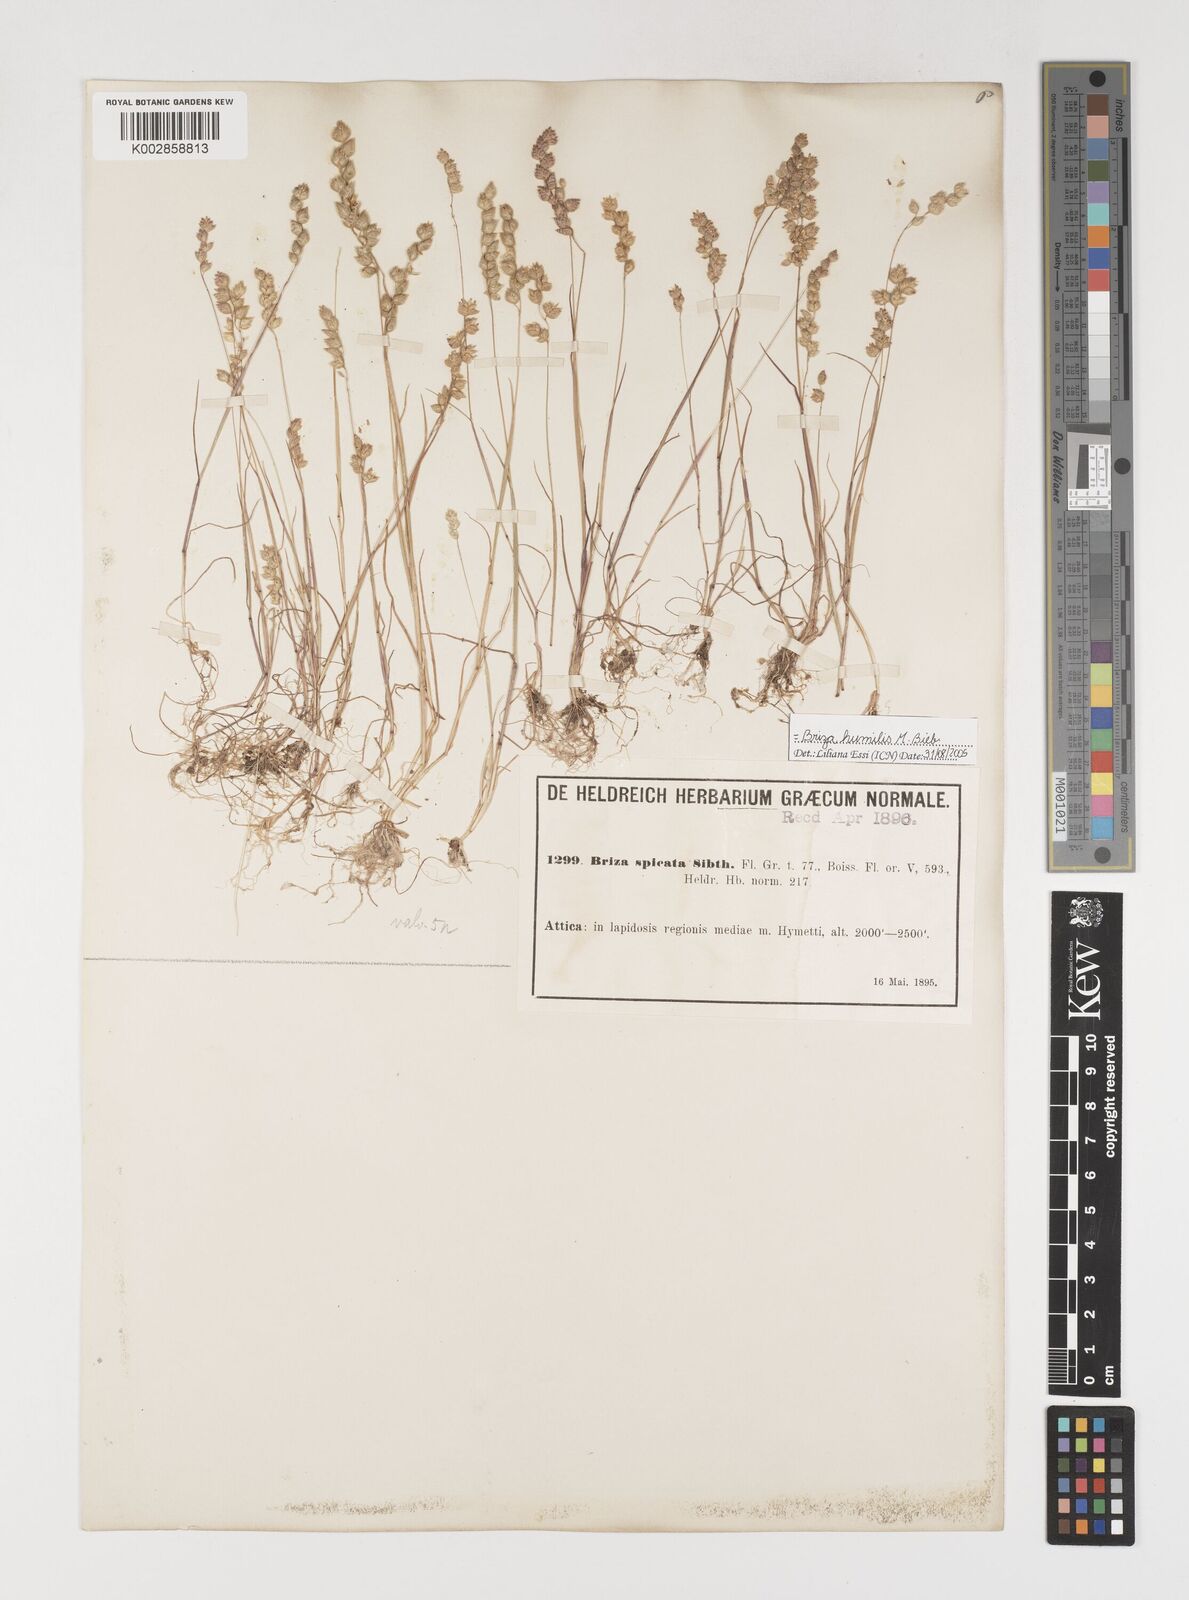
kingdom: Plantae
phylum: Tracheophyta
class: Liliopsida
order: Poales
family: Poaceae
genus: Briza
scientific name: Briza humilis
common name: Spiked quaking grass
